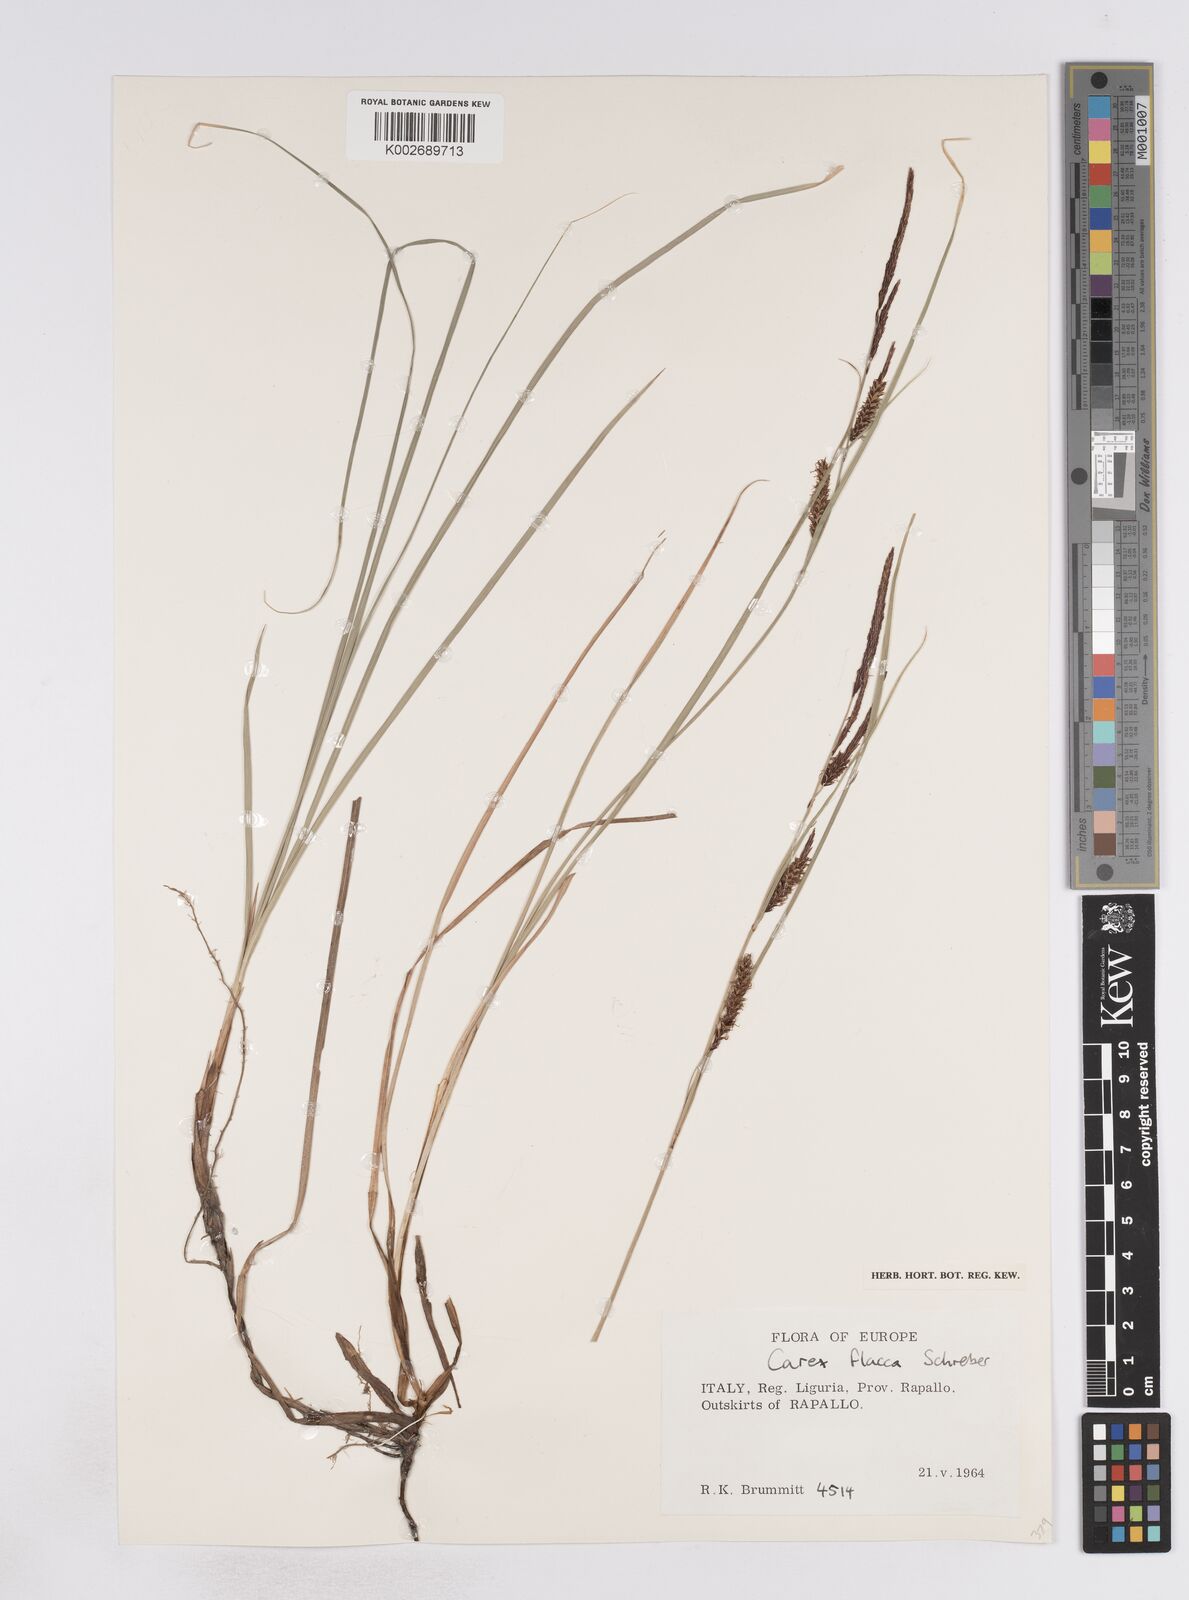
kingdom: Plantae
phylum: Tracheophyta
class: Liliopsida
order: Poales
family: Cyperaceae
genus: Carex
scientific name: Carex flacca
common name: Glaucous sedge
